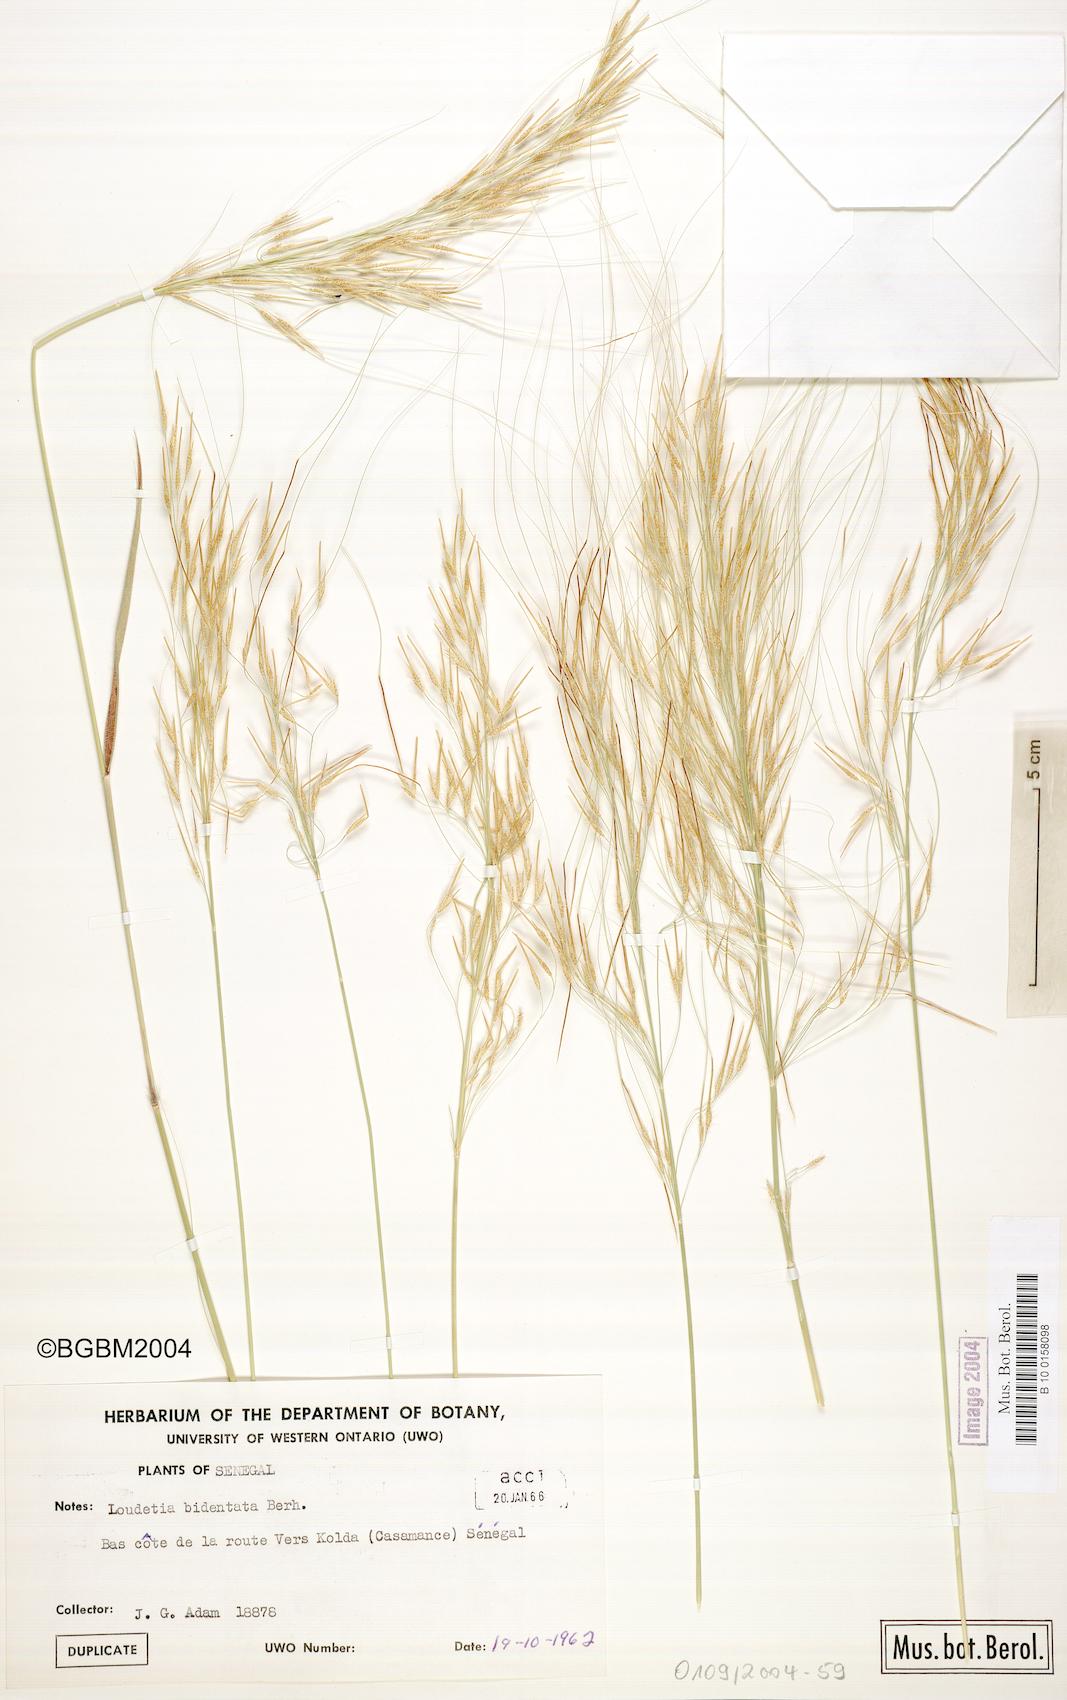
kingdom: Plantae
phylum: Tracheophyta
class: Liliopsida
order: Poales
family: Poaceae
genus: Loudetia
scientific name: Loudetia annua
